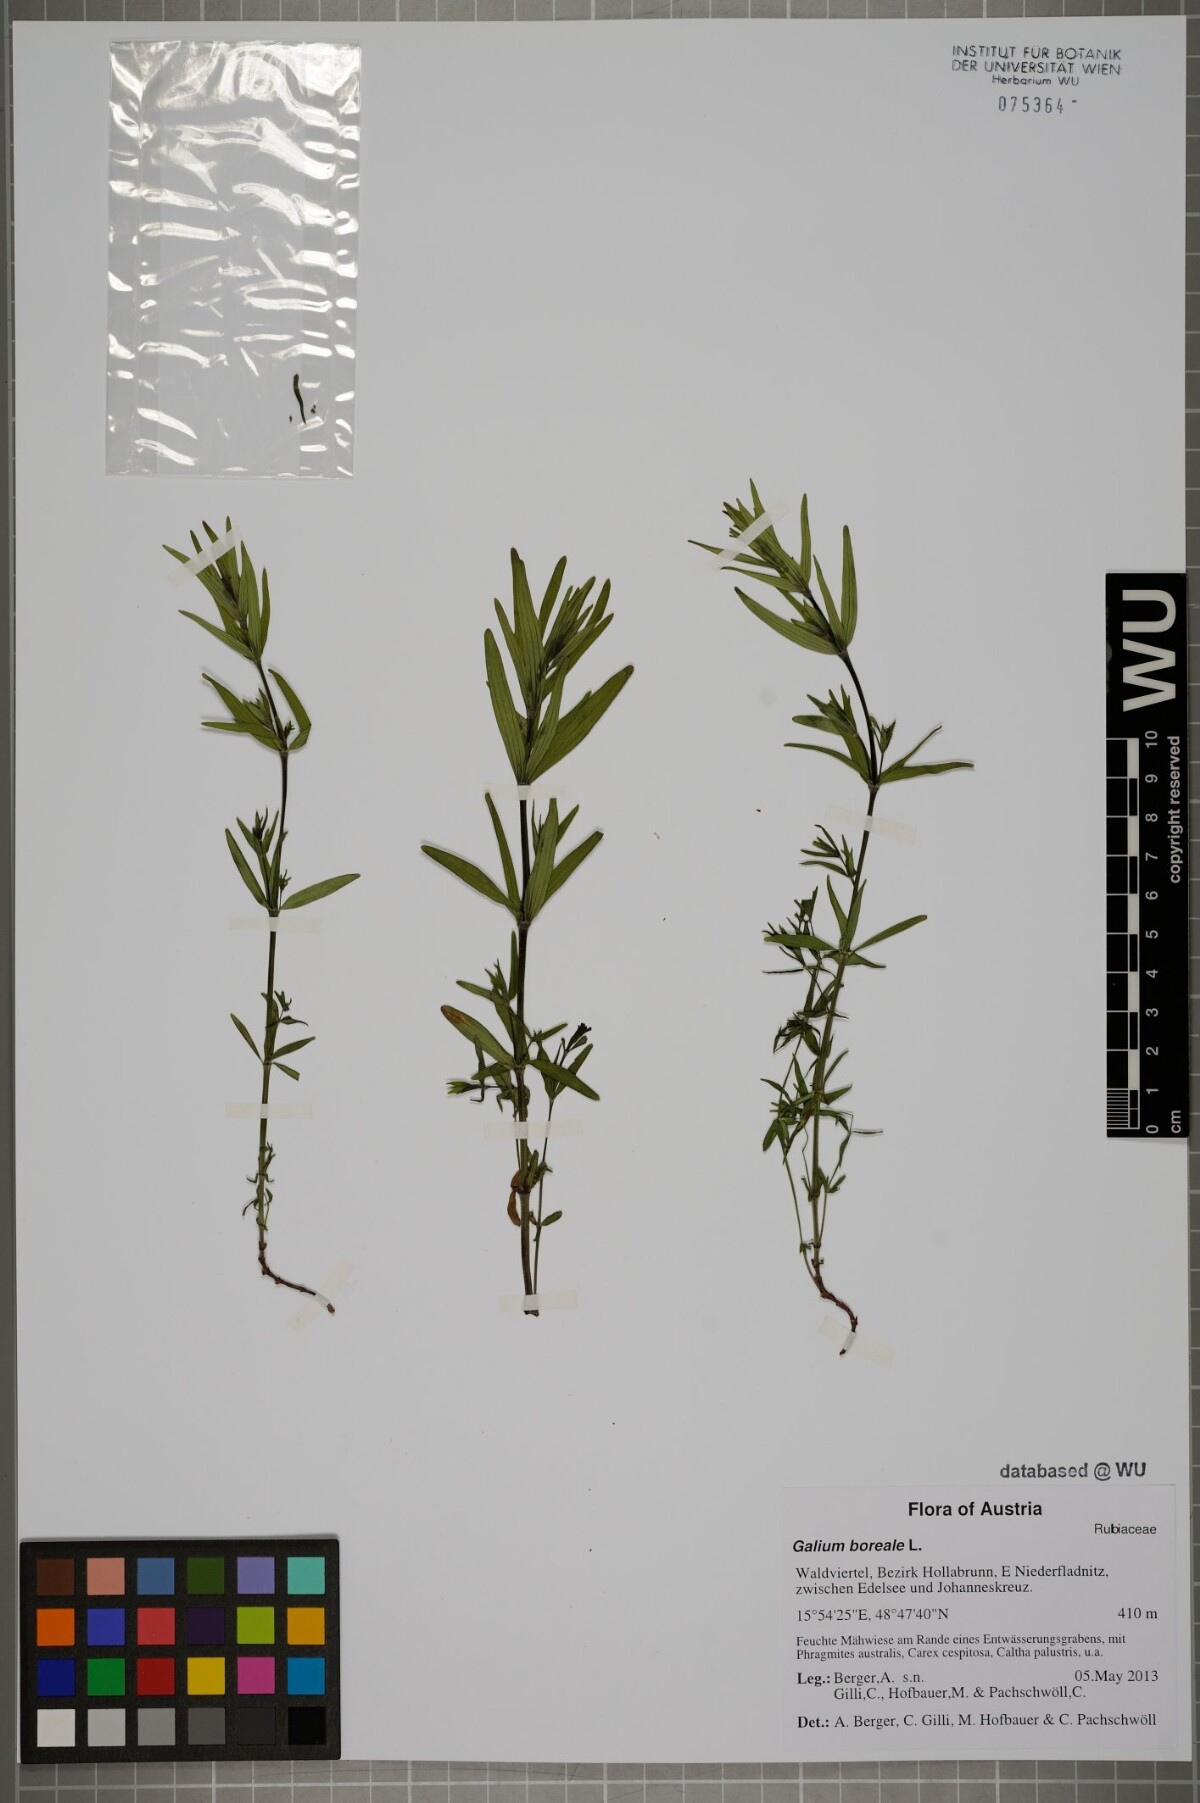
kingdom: Plantae
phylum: Tracheophyta
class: Magnoliopsida
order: Gentianales
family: Rubiaceae
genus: Galium
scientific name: Galium boreale
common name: Northern bedstraw
